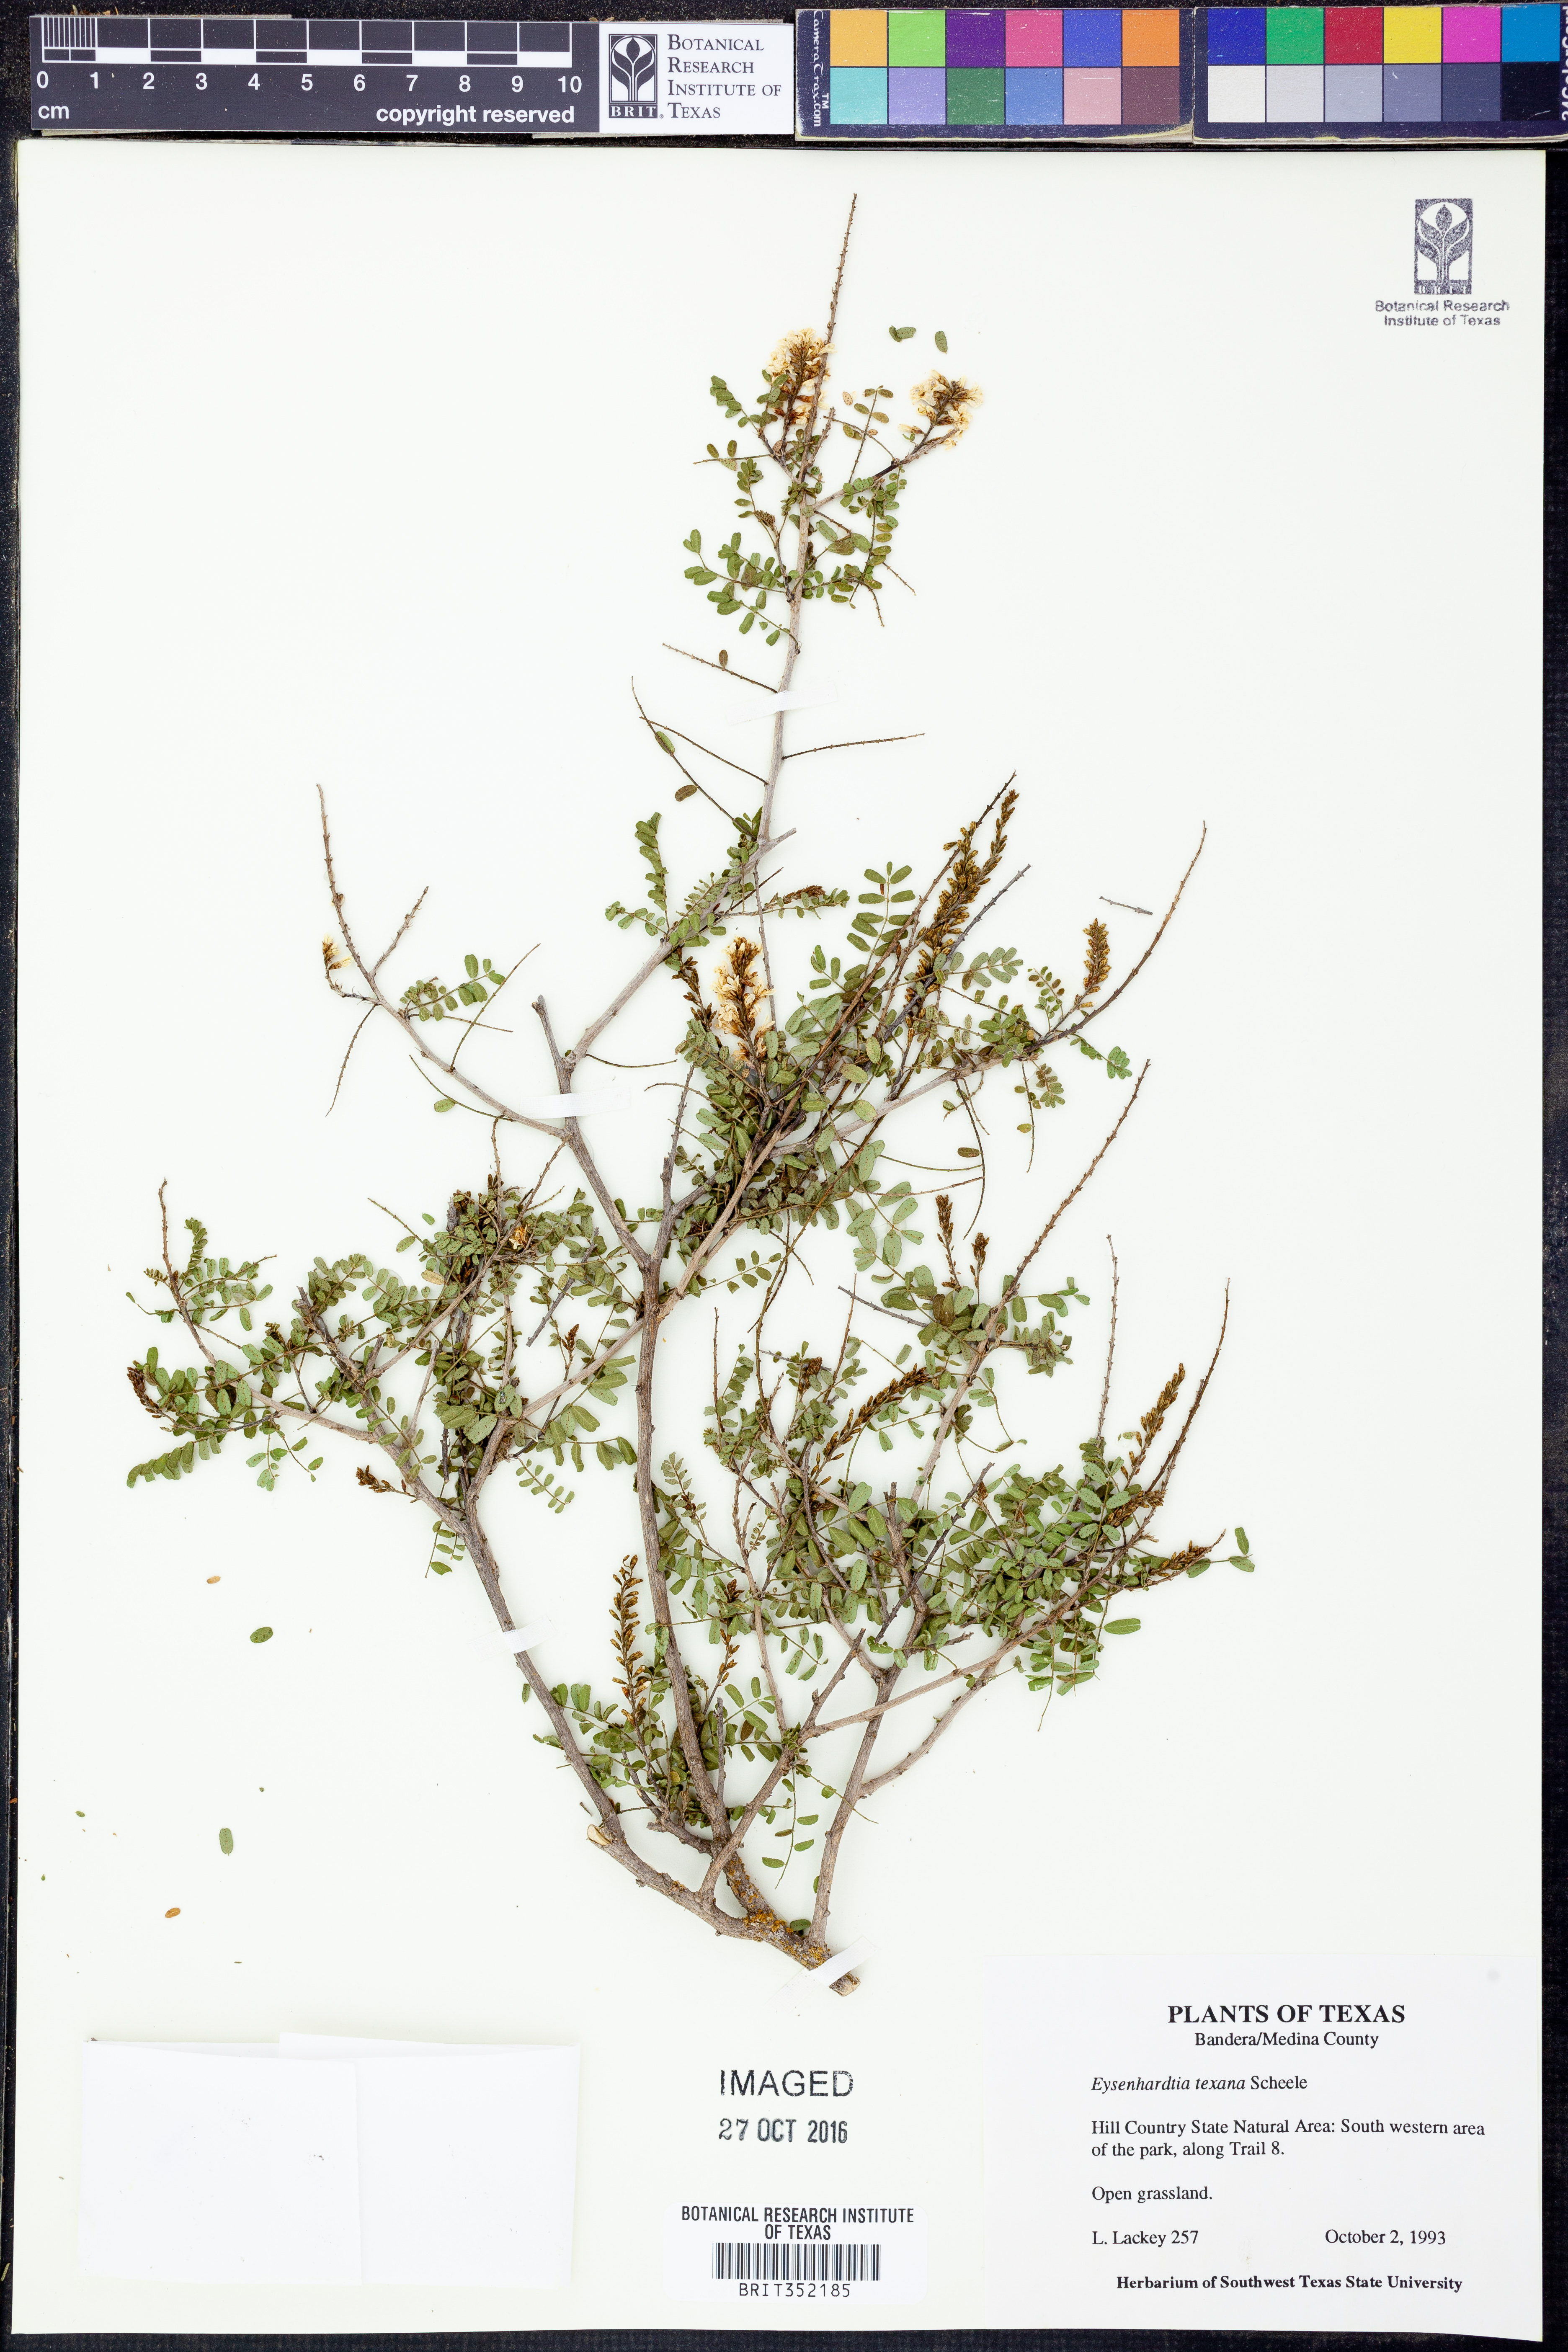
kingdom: Plantae
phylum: Tracheophyta
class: Magnoliopsida
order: Fabales
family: Fabaceae
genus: Eysenhardtia
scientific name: Eysenhardtia texana
